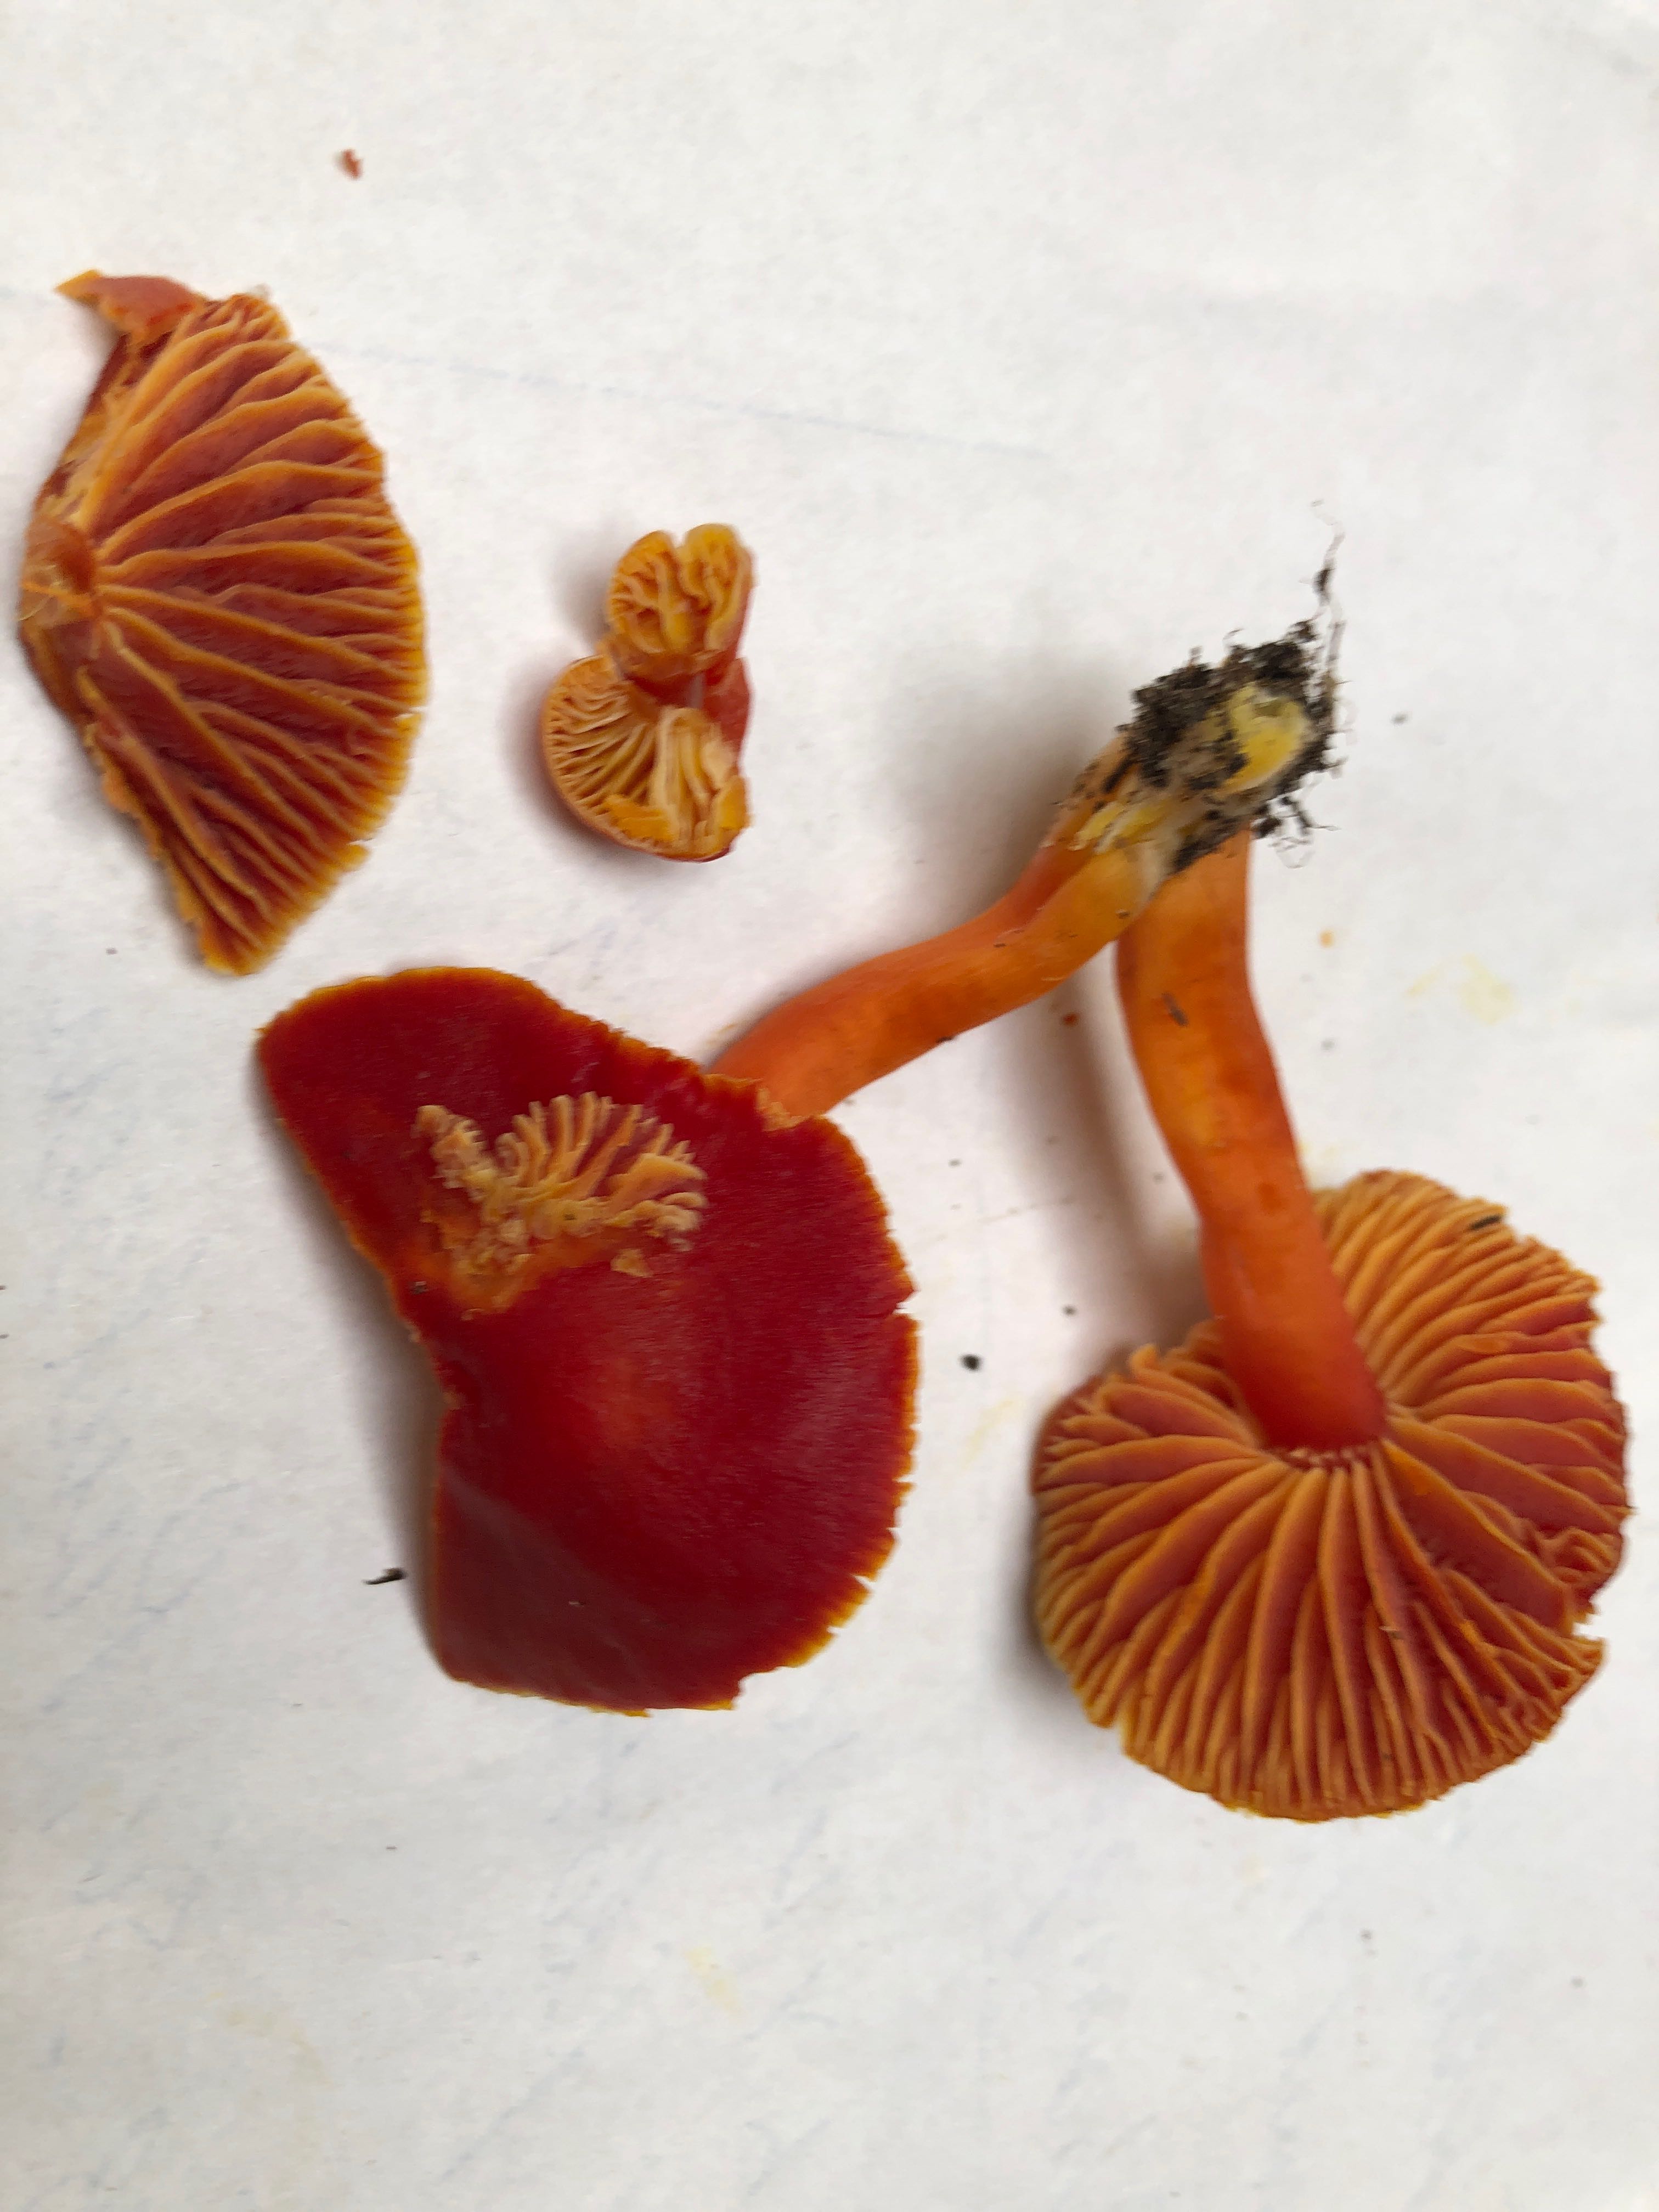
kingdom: Fungi
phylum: Basidiomycota
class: Agaricomycetes
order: Agaricales
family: Hygrophoraceae
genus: Hygrocybe
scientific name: Hygrocybe coccinea
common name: cinnober-vokshat
